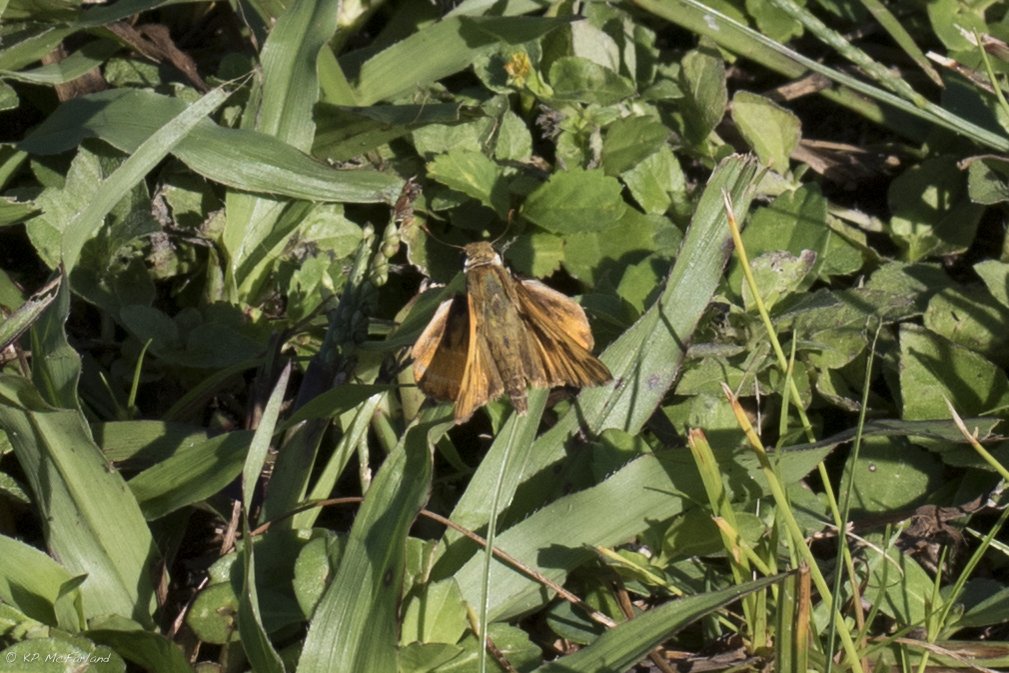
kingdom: Animalia
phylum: Arthropoda
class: Insecta
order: Lepidoptera
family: Hesperiidae
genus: Hylephila
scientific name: Hylephila phyleus
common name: Fiery Skipper
